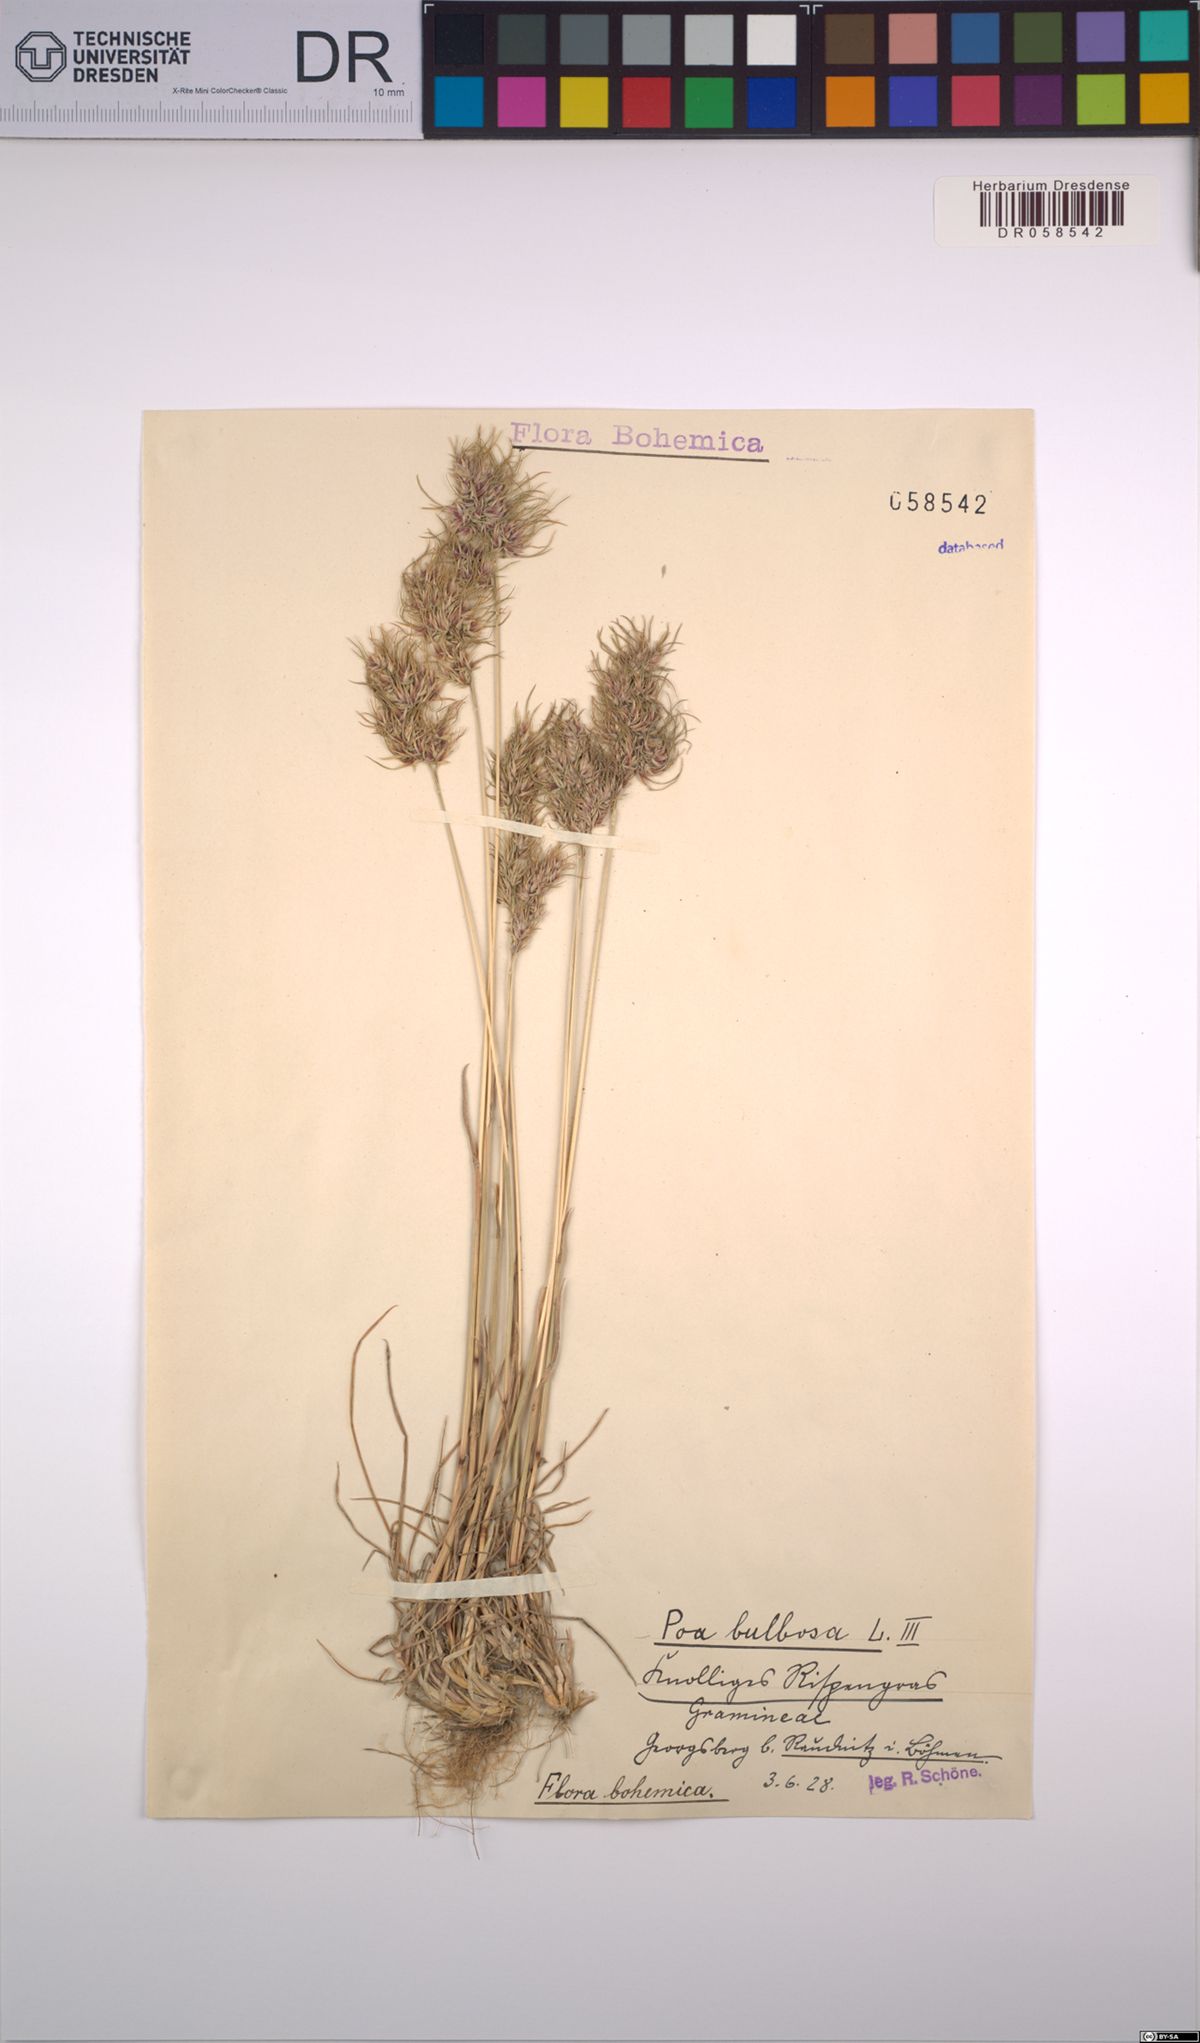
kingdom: Plantae
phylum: Tracheophyta
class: Liliopsida
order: Poales
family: Poaceae
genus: Poa
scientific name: Poa bulbosa
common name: Bulbous bluegrass
